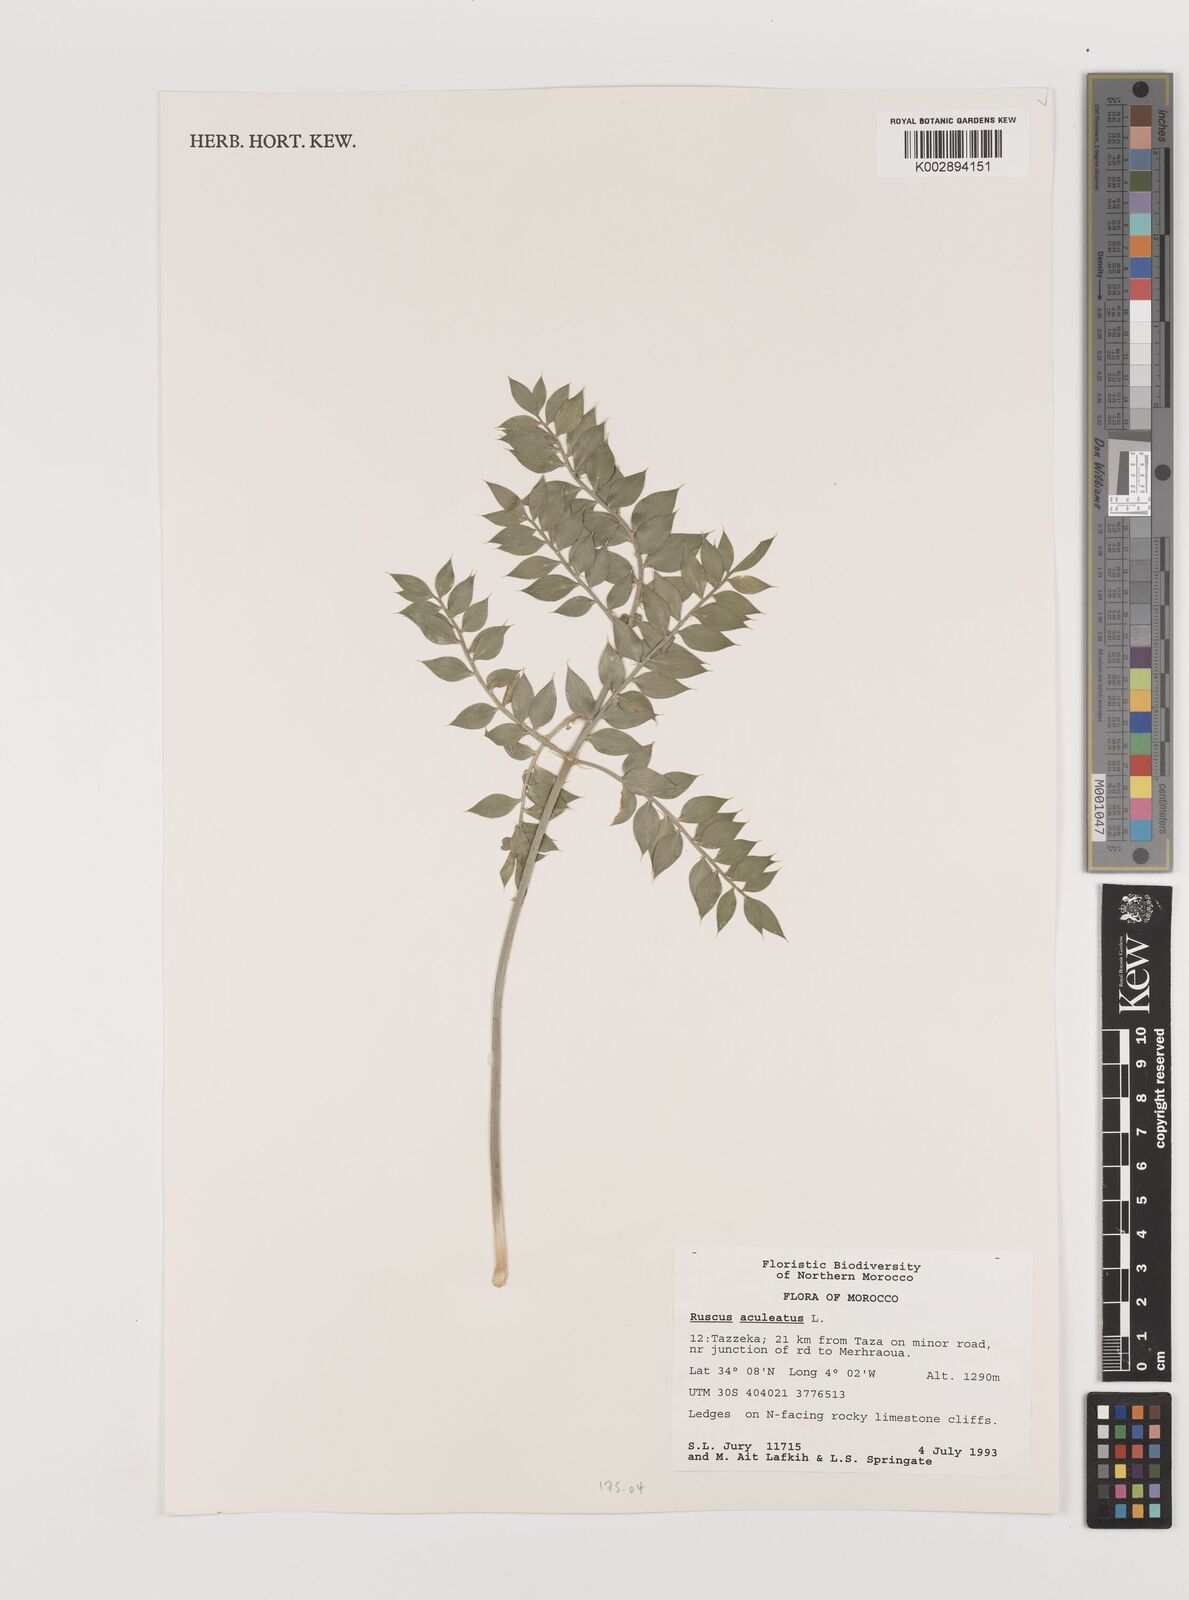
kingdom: Plantae
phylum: Tracheophyta
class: Liliopsida
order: Asparagales
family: Asparagaceae
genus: Ruscus
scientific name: Ruscus aculeatus
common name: Butcher's-broom
